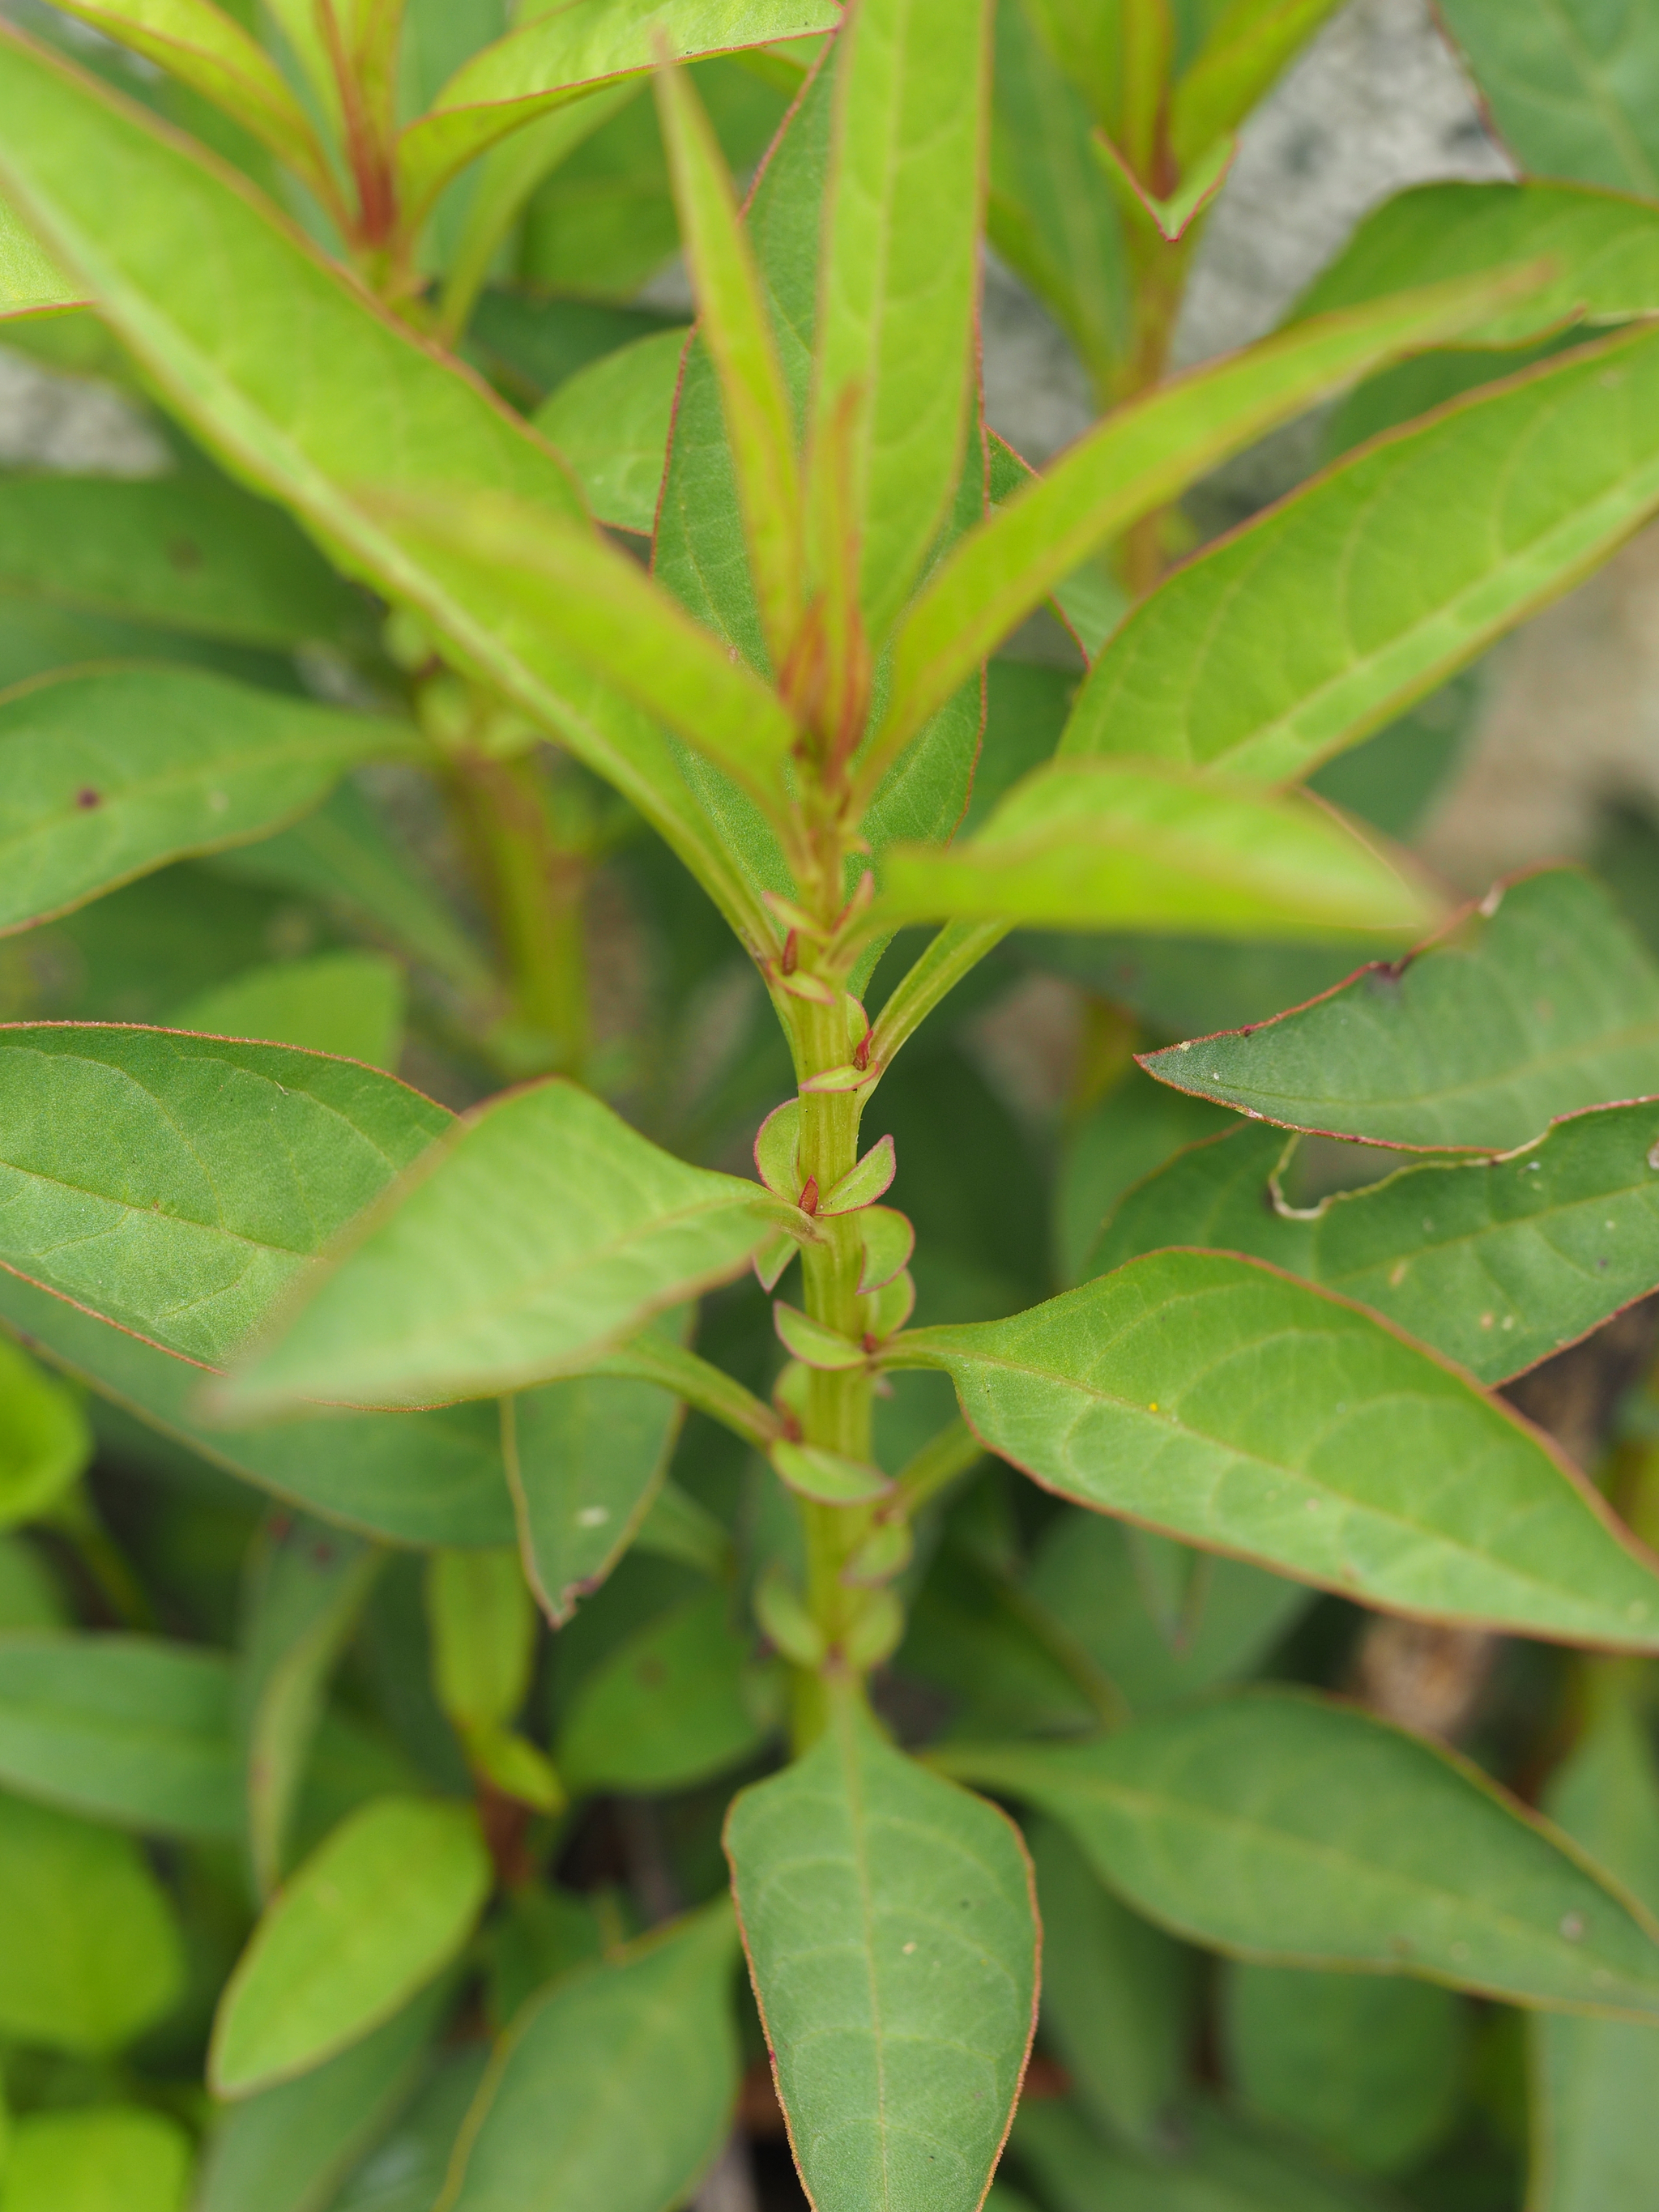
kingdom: Plantae
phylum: Tracheophyta
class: Magnoliopsida
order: Caryophyllales
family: Amaranthaceae
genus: Celosia
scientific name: Celosia argentea
